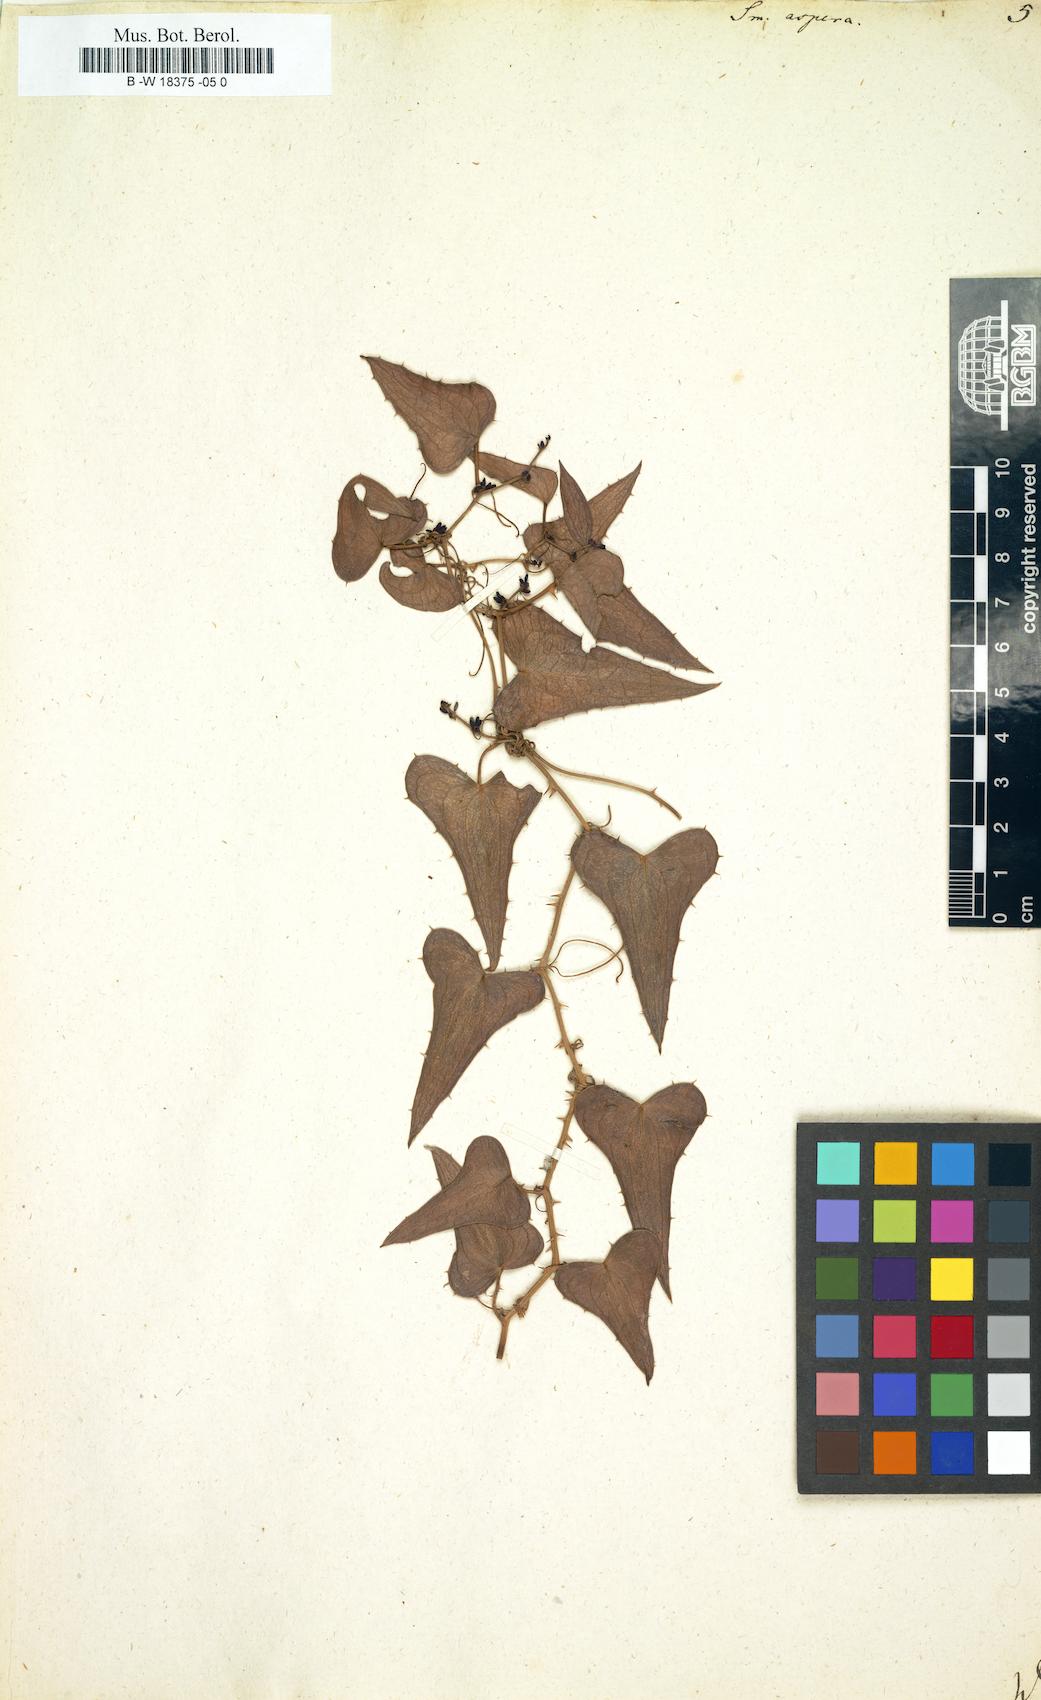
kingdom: Plantae
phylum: Tracheophyta
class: Liliopsida
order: Liliales
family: Smilacaceae
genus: Smilax
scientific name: Smilax aspera
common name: Common smilax
